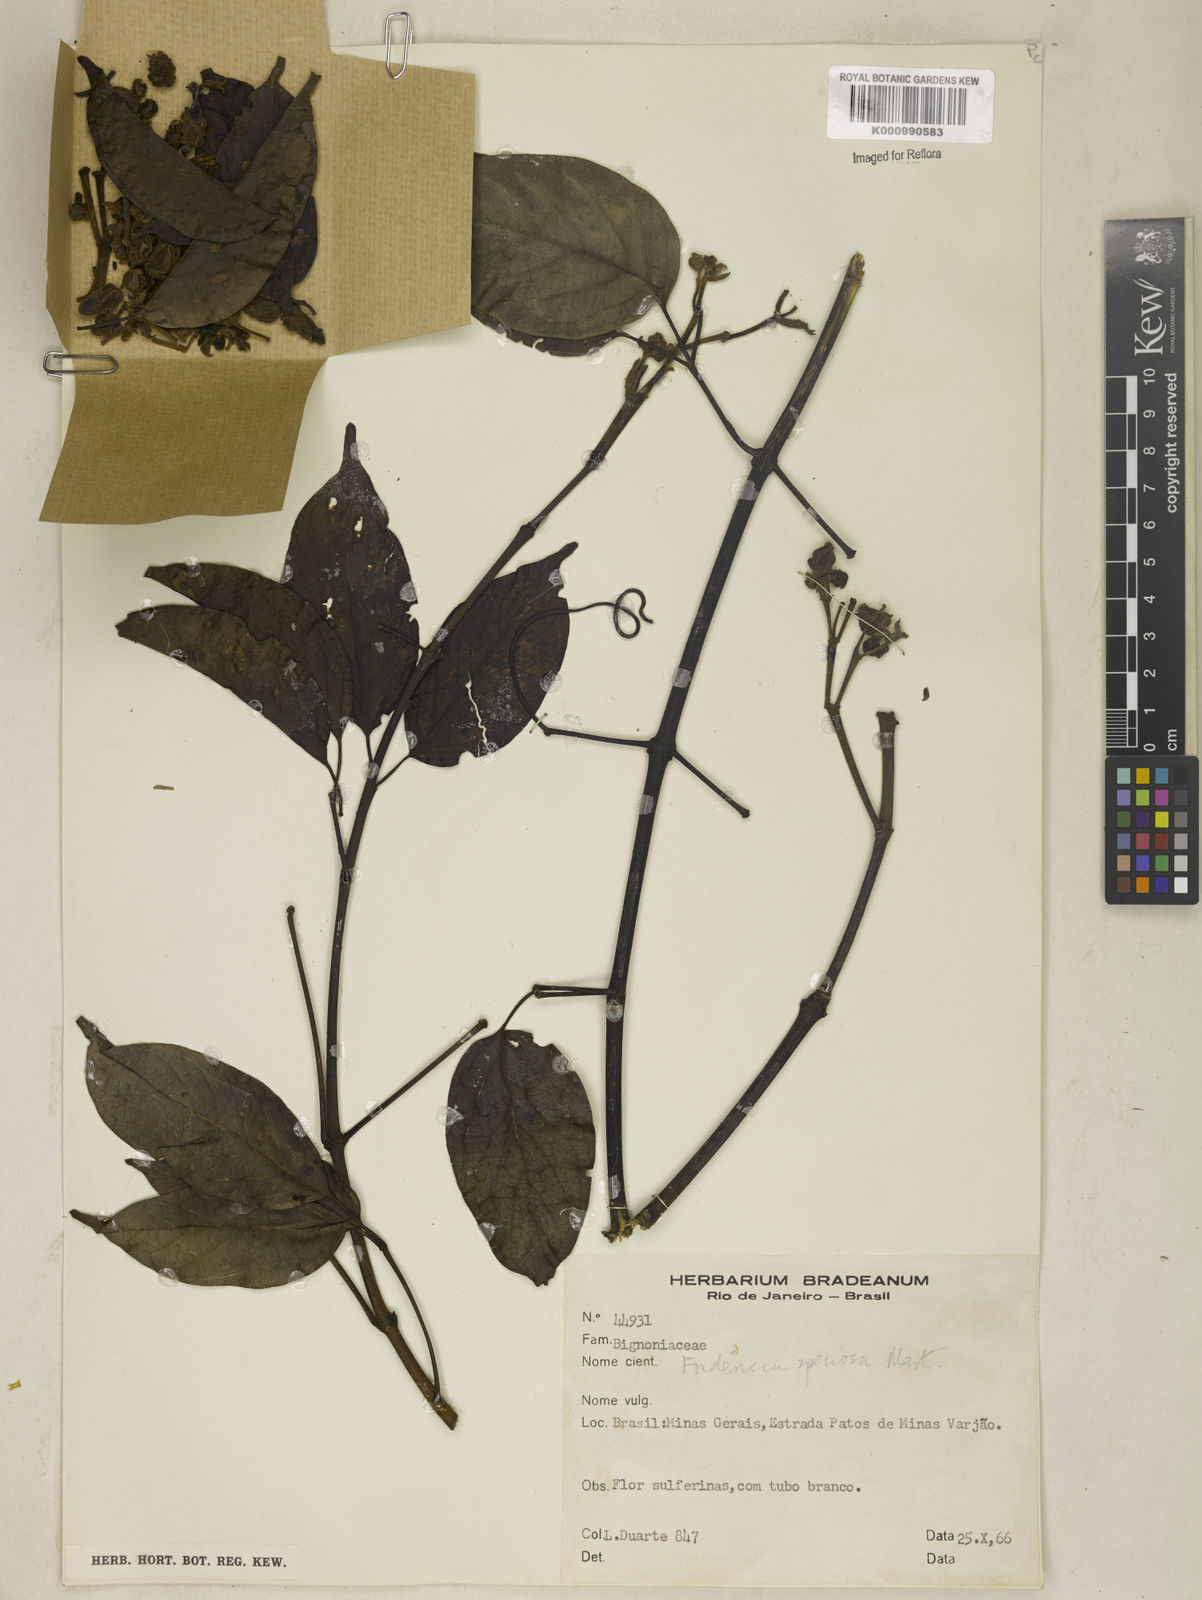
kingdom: Plantae
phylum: Tracheophyta
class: Magnoliopsida
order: Lamiales
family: Bignoniaceae
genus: Fridericia
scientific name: Fridericia speciosa
